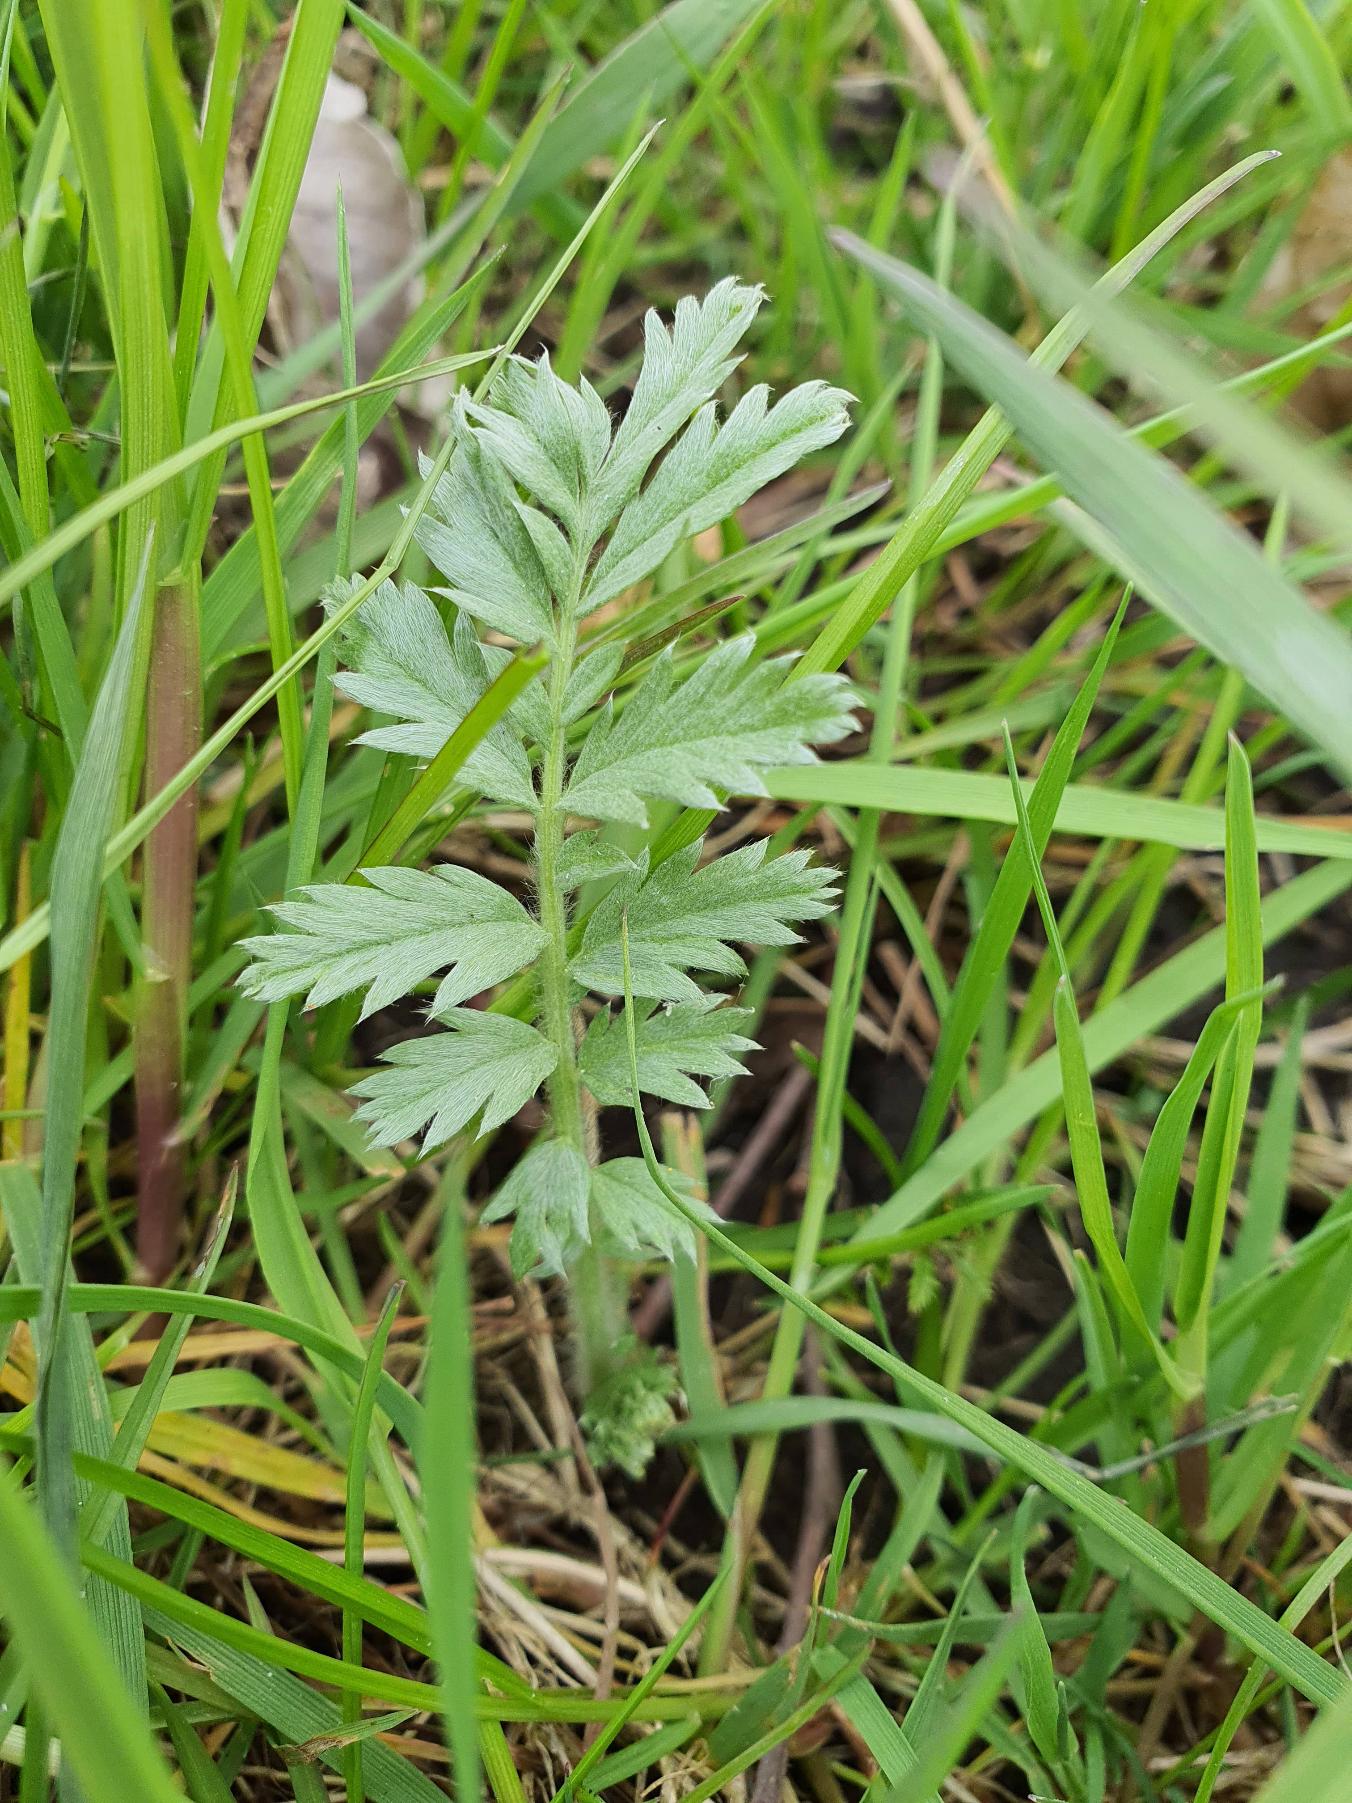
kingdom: Plantae
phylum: Tracheophyta
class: Magnoliopsida
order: Rosales
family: Rosaceae
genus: Argentina
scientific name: Argentina anserina
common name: Gåsepotentil
